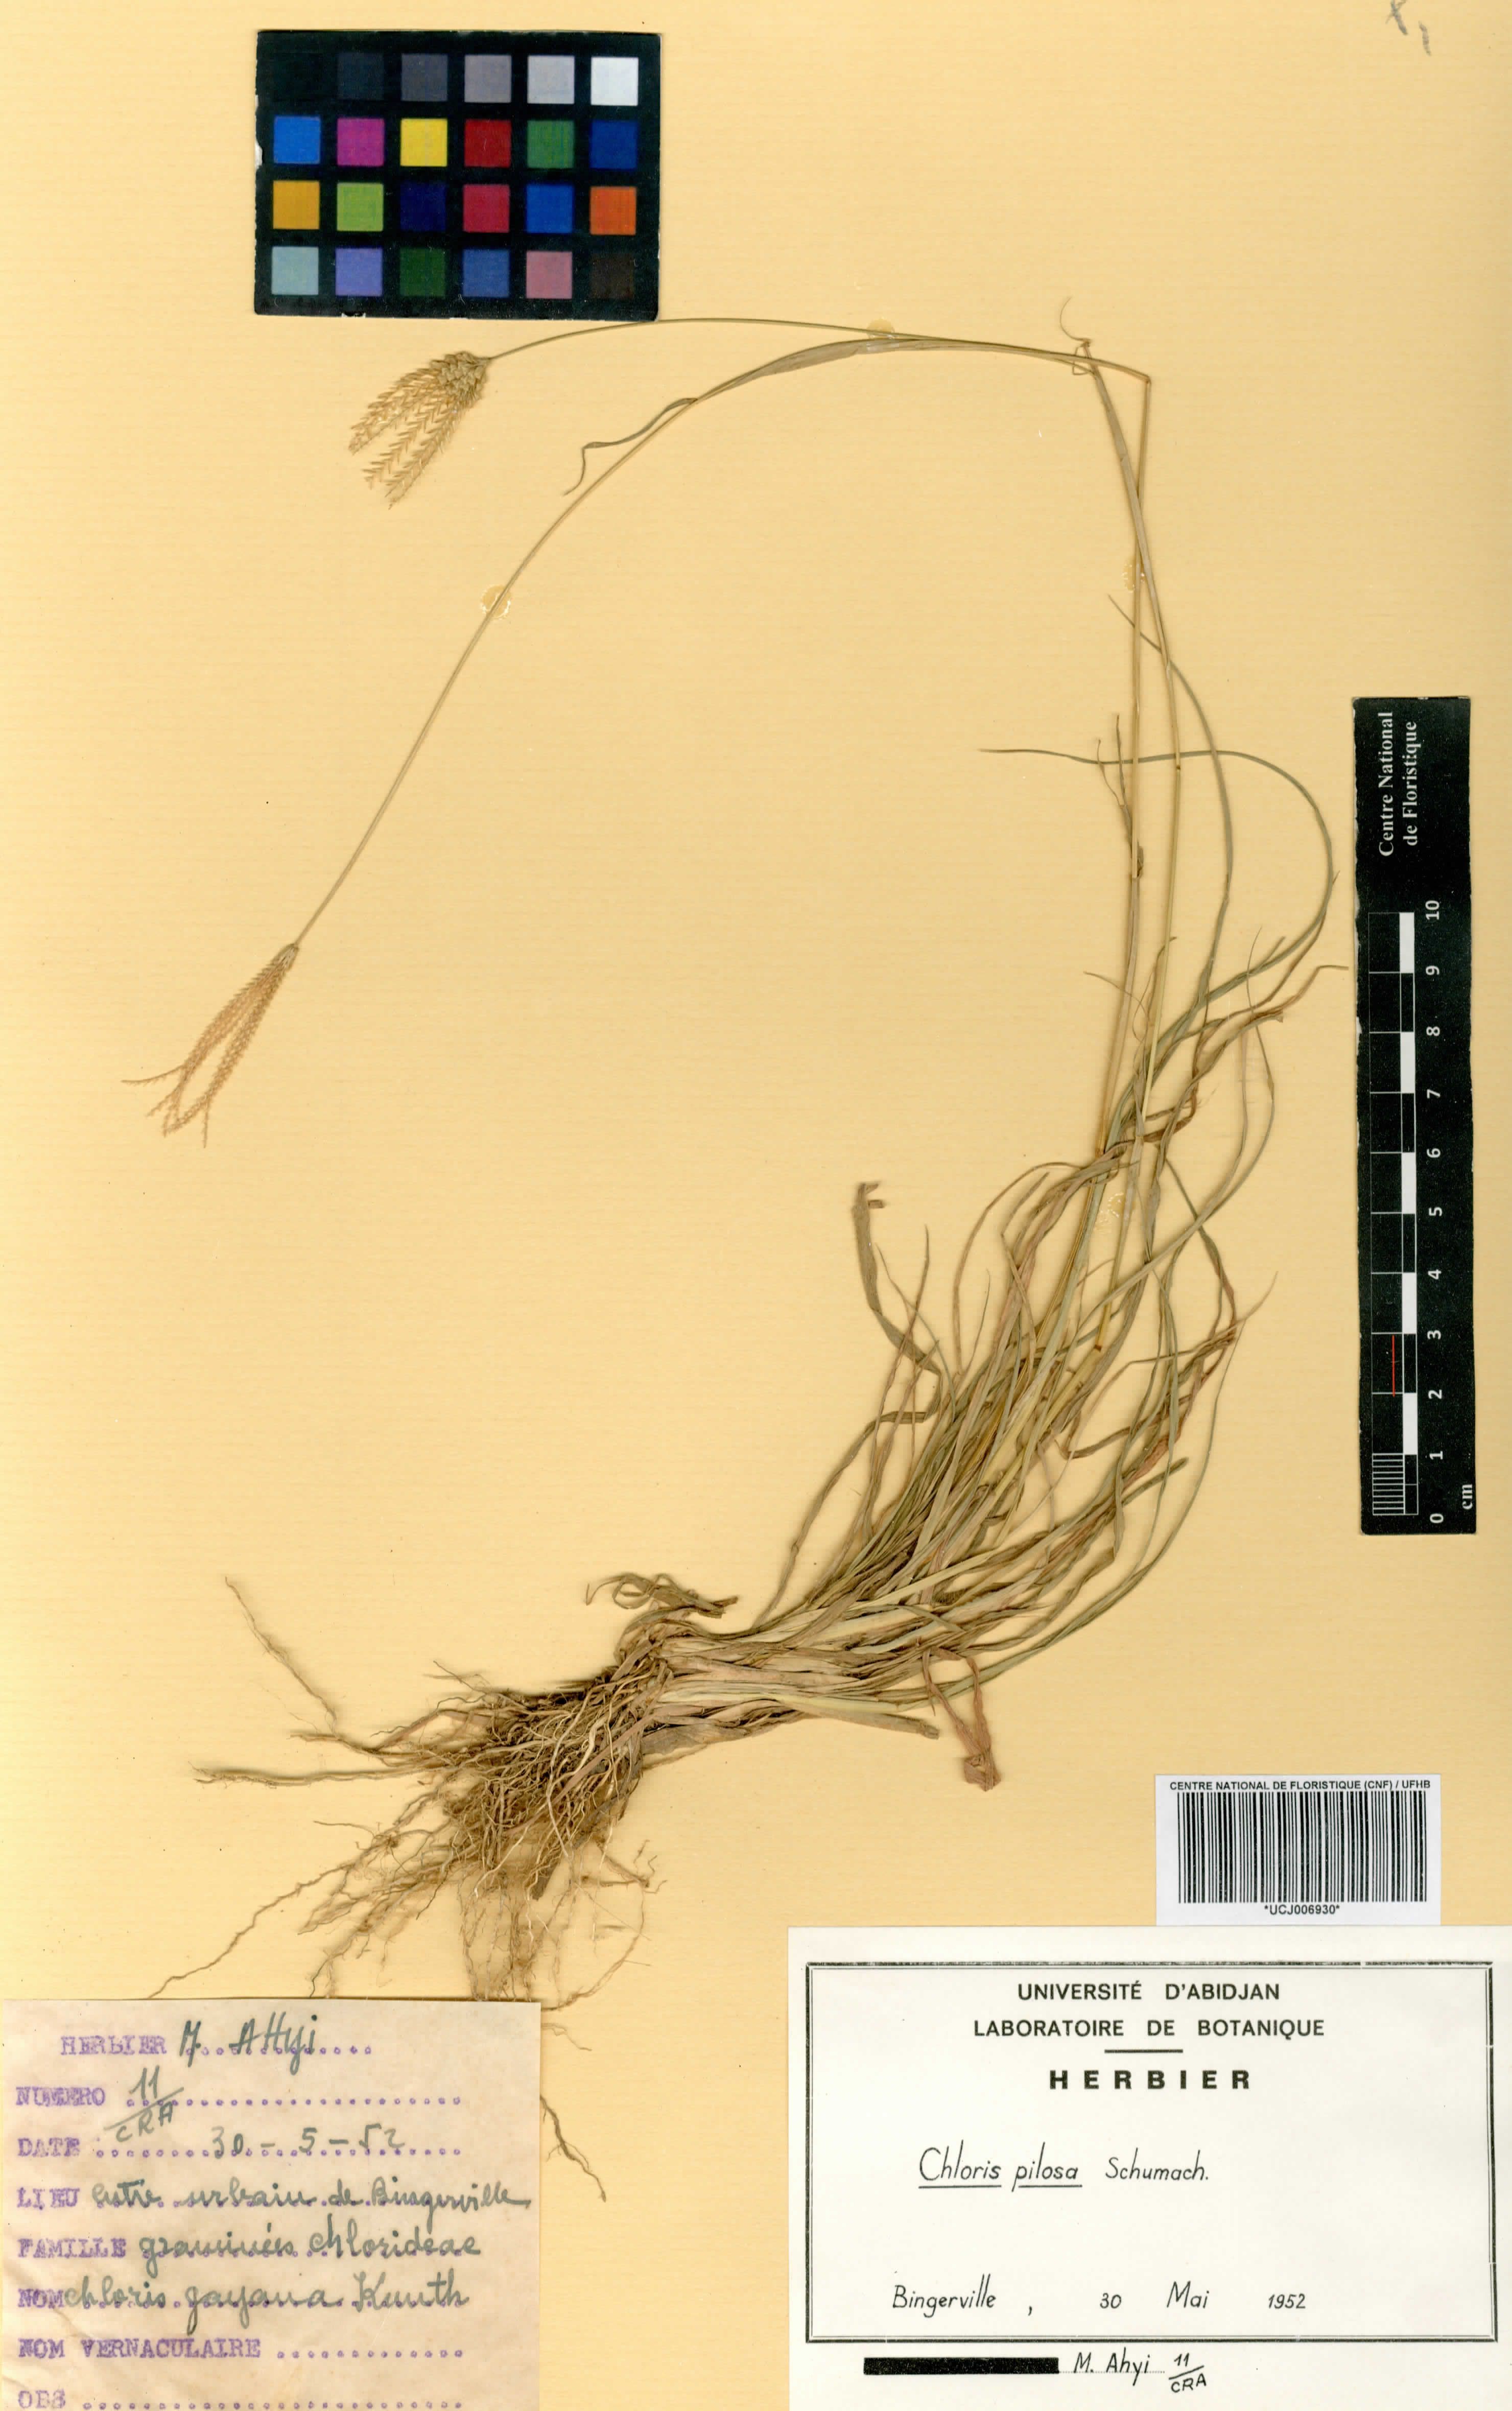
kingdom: Plantae
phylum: Tracheophyta
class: Liliopsida
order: Poales
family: Poaceae
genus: Chloris
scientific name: Chloris pilosa
